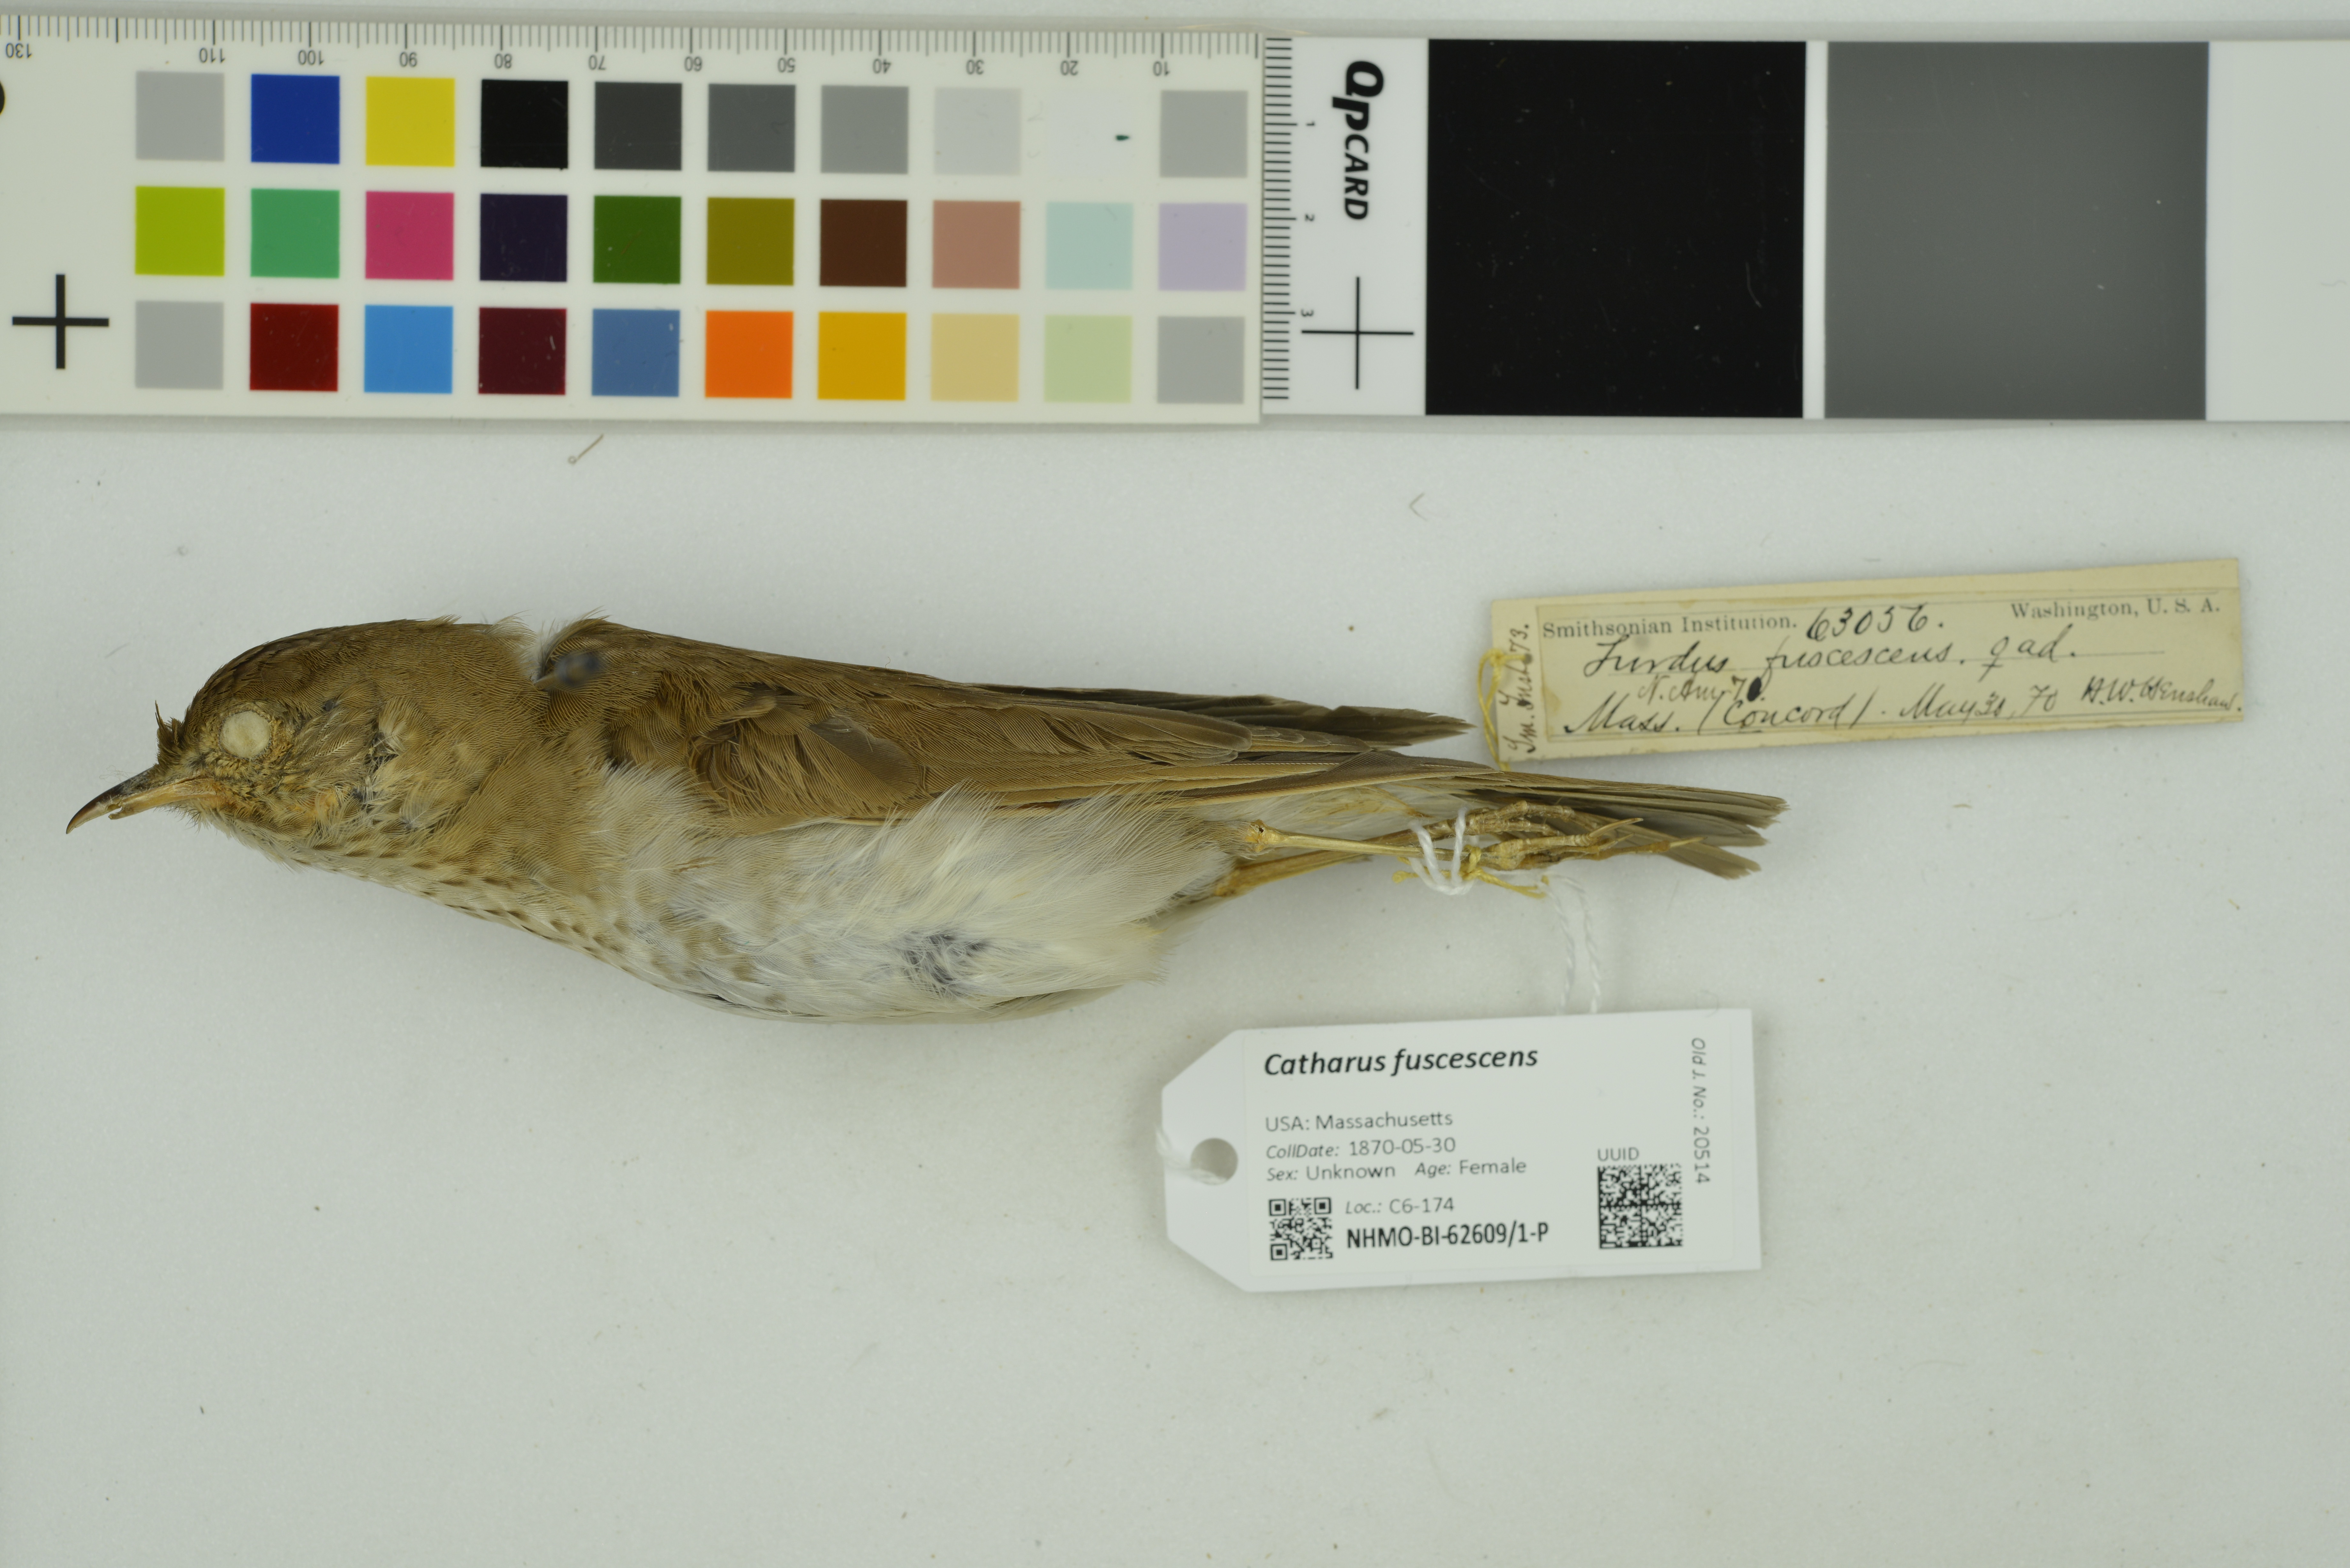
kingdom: Animalia
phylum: Chordata
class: Aves
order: Passeriformes
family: Turdidae
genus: Catharus
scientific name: Catharus fuscescens
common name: Veery
